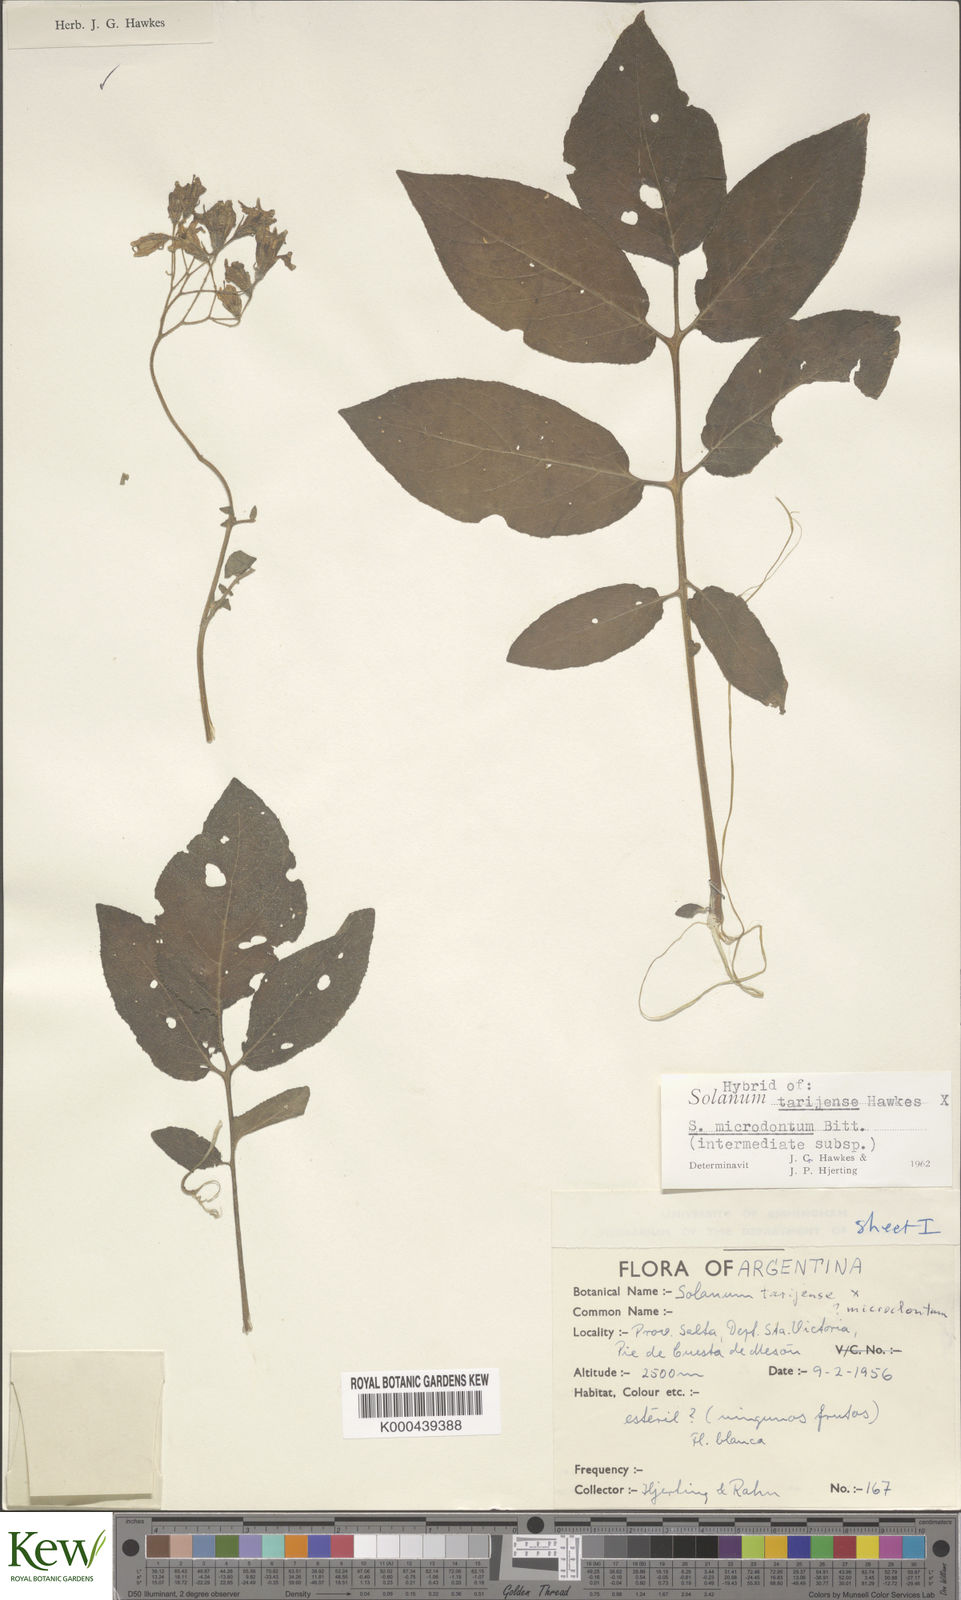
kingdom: Plantae
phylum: Tracheophyta
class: Magnoliopsida
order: Solanales
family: Solanaceae
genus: Solanum
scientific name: Solanum tarijense
